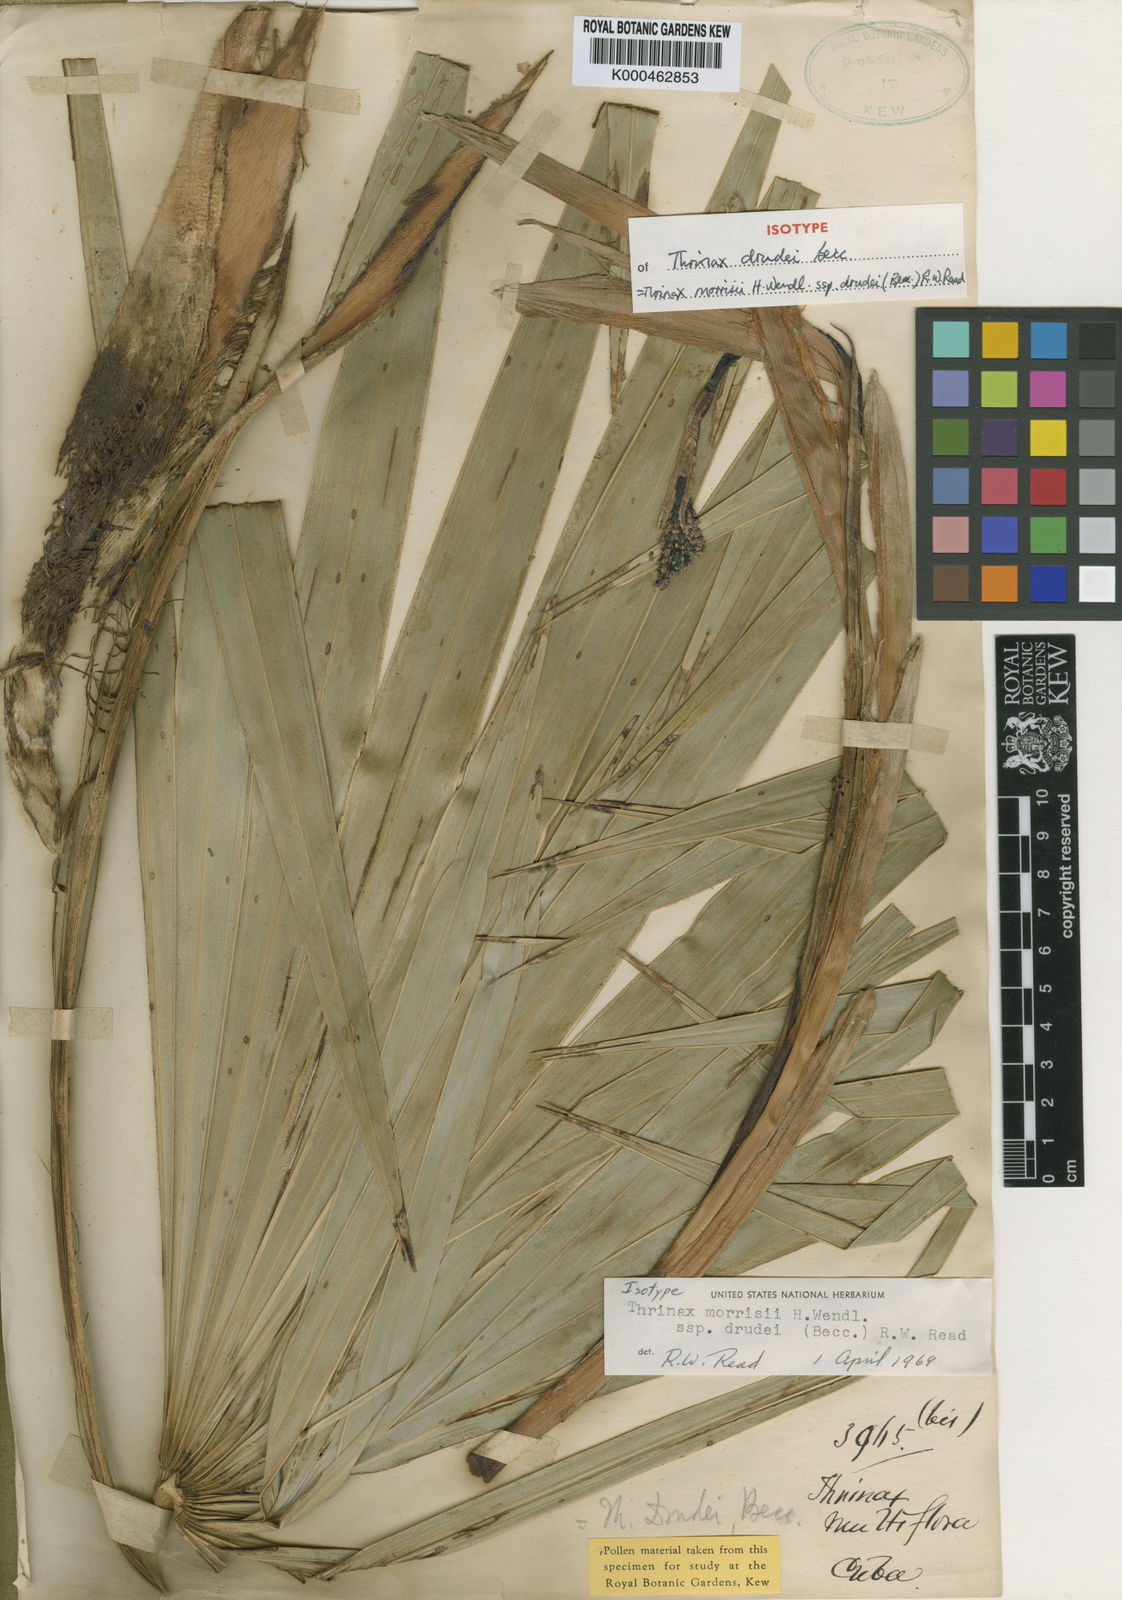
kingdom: Plantae
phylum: Tracheophyta
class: Liliopsida
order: Arecales
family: Arecaceae
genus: Leucothrinax
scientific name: Leucothrinax morrisii
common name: Key palm
